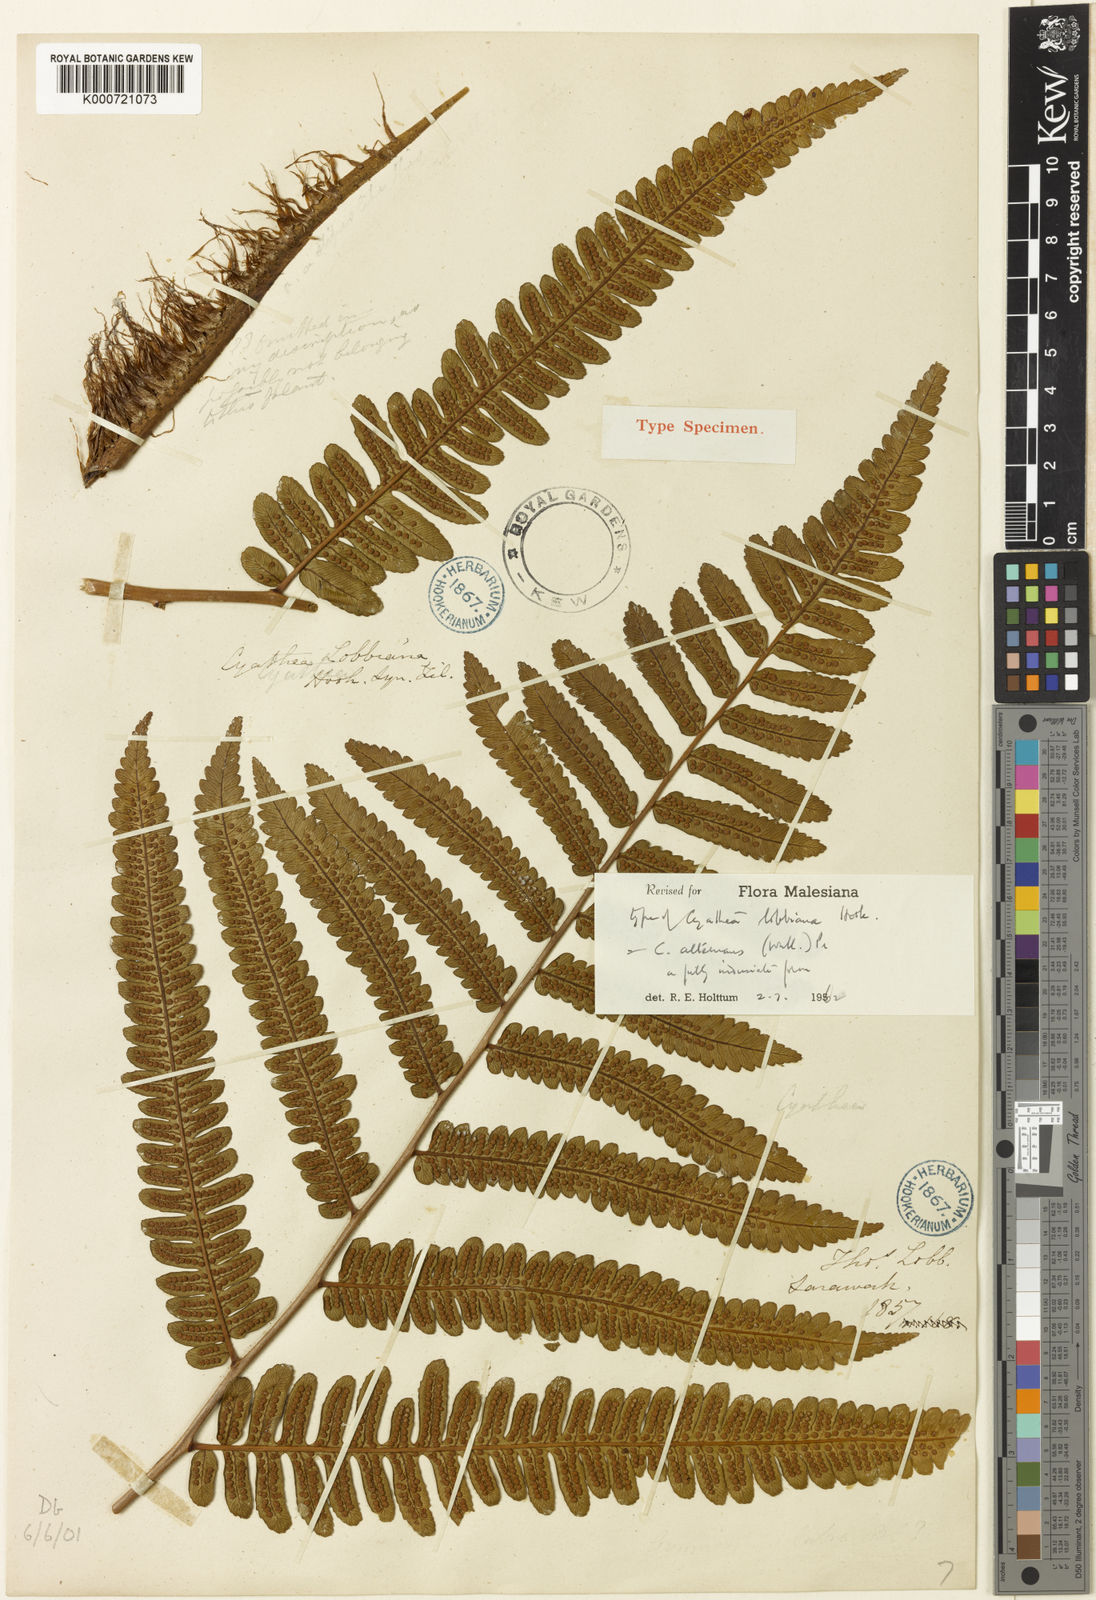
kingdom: Plantae
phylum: Tracheophyta
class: Polypodiopsida
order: Cyatheales
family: Cyatheaceae
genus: Alsophila
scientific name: Alsophila alternans
